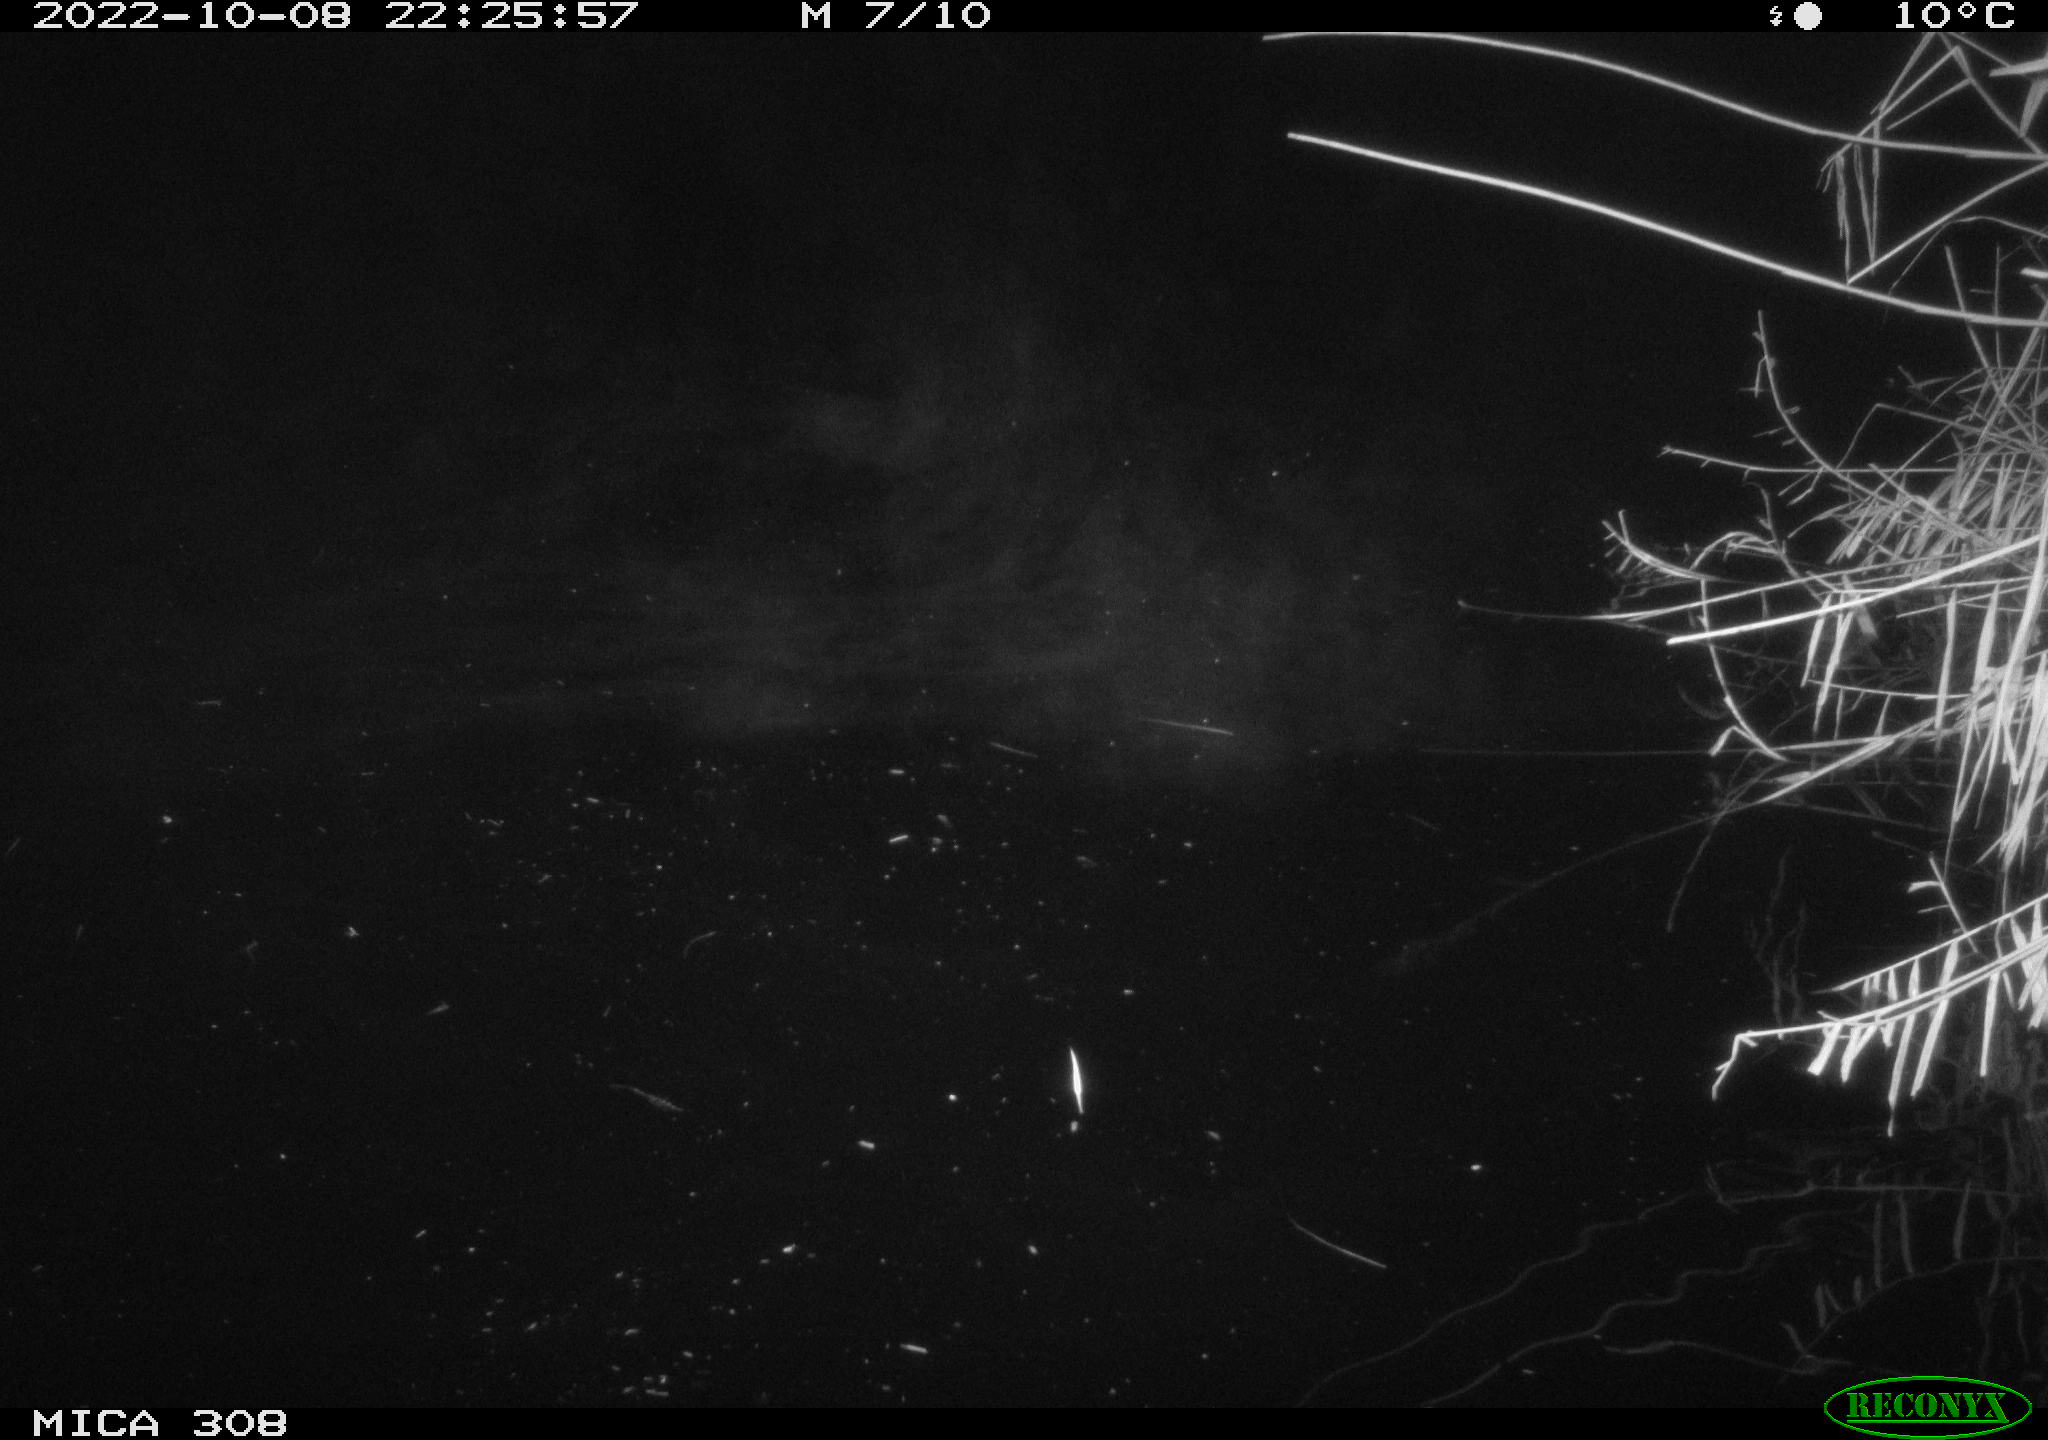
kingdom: Animalia
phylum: Chordata
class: Mammalia
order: Rodentia
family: Muridae
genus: Rattus
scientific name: Rattus norvegicus
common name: Brown rat
